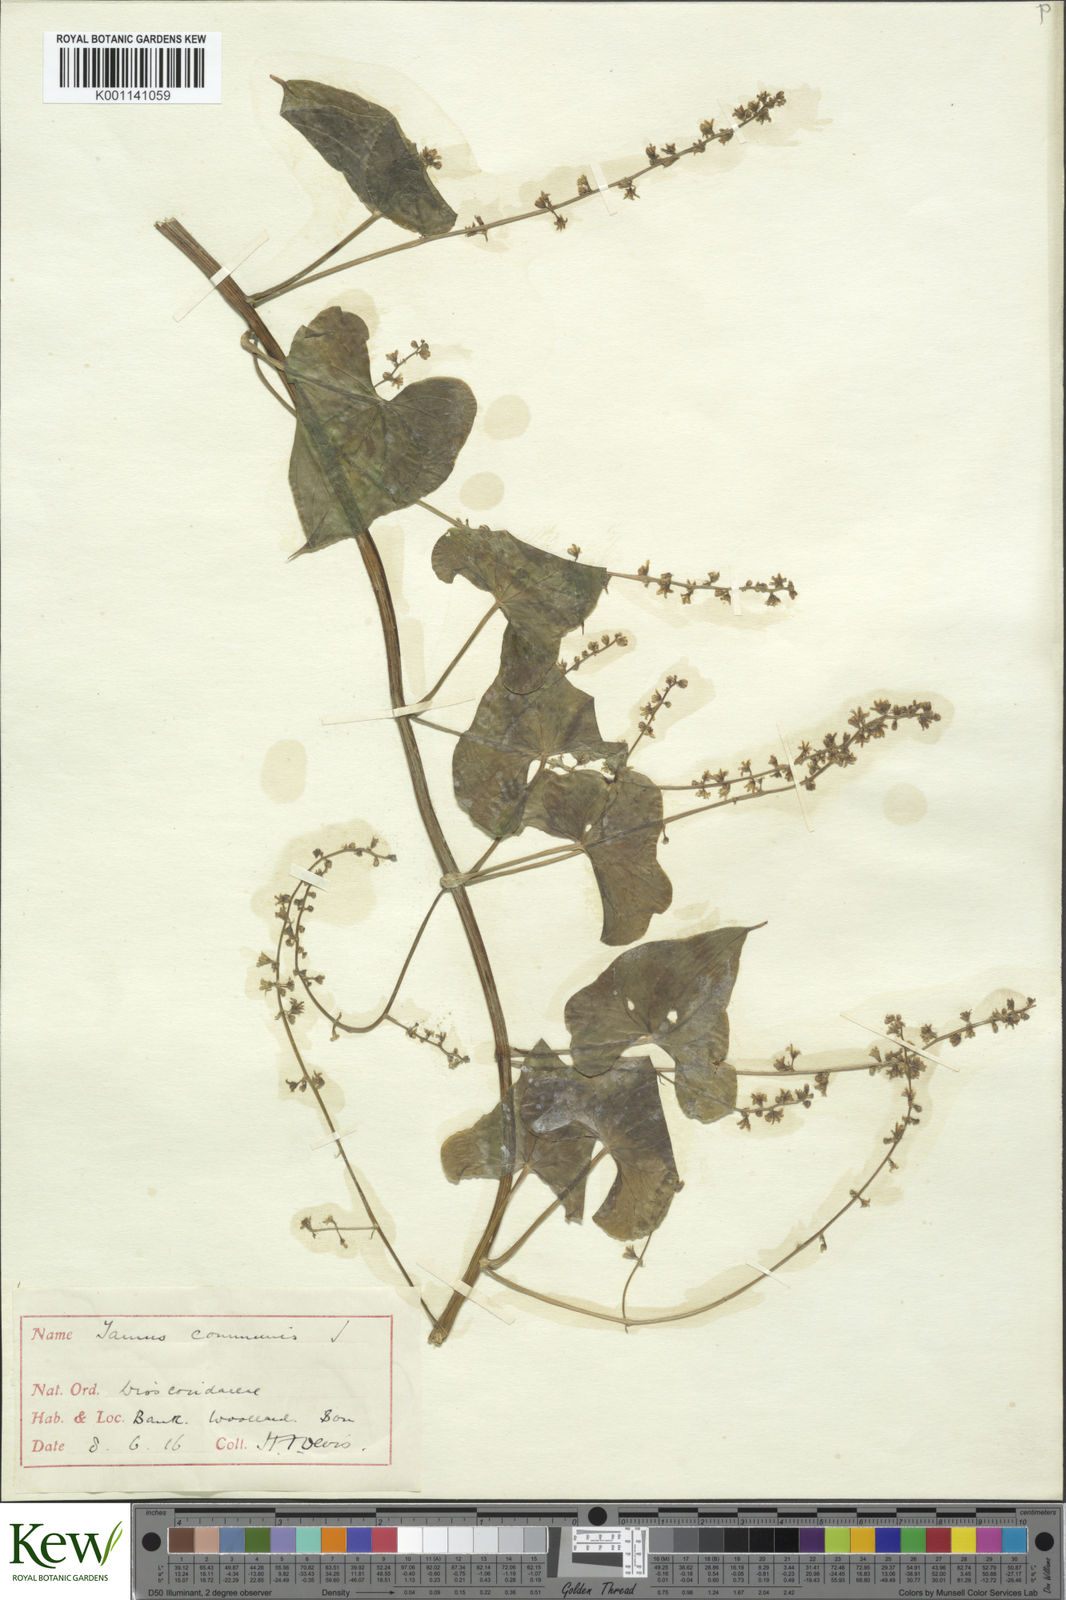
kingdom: Plantae
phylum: Tracheophyta
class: Liliopsida
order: Dioscoreales
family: Dioscoreaceae
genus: Dioscorea
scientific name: Dioscorea communis
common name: Black-bindweed
